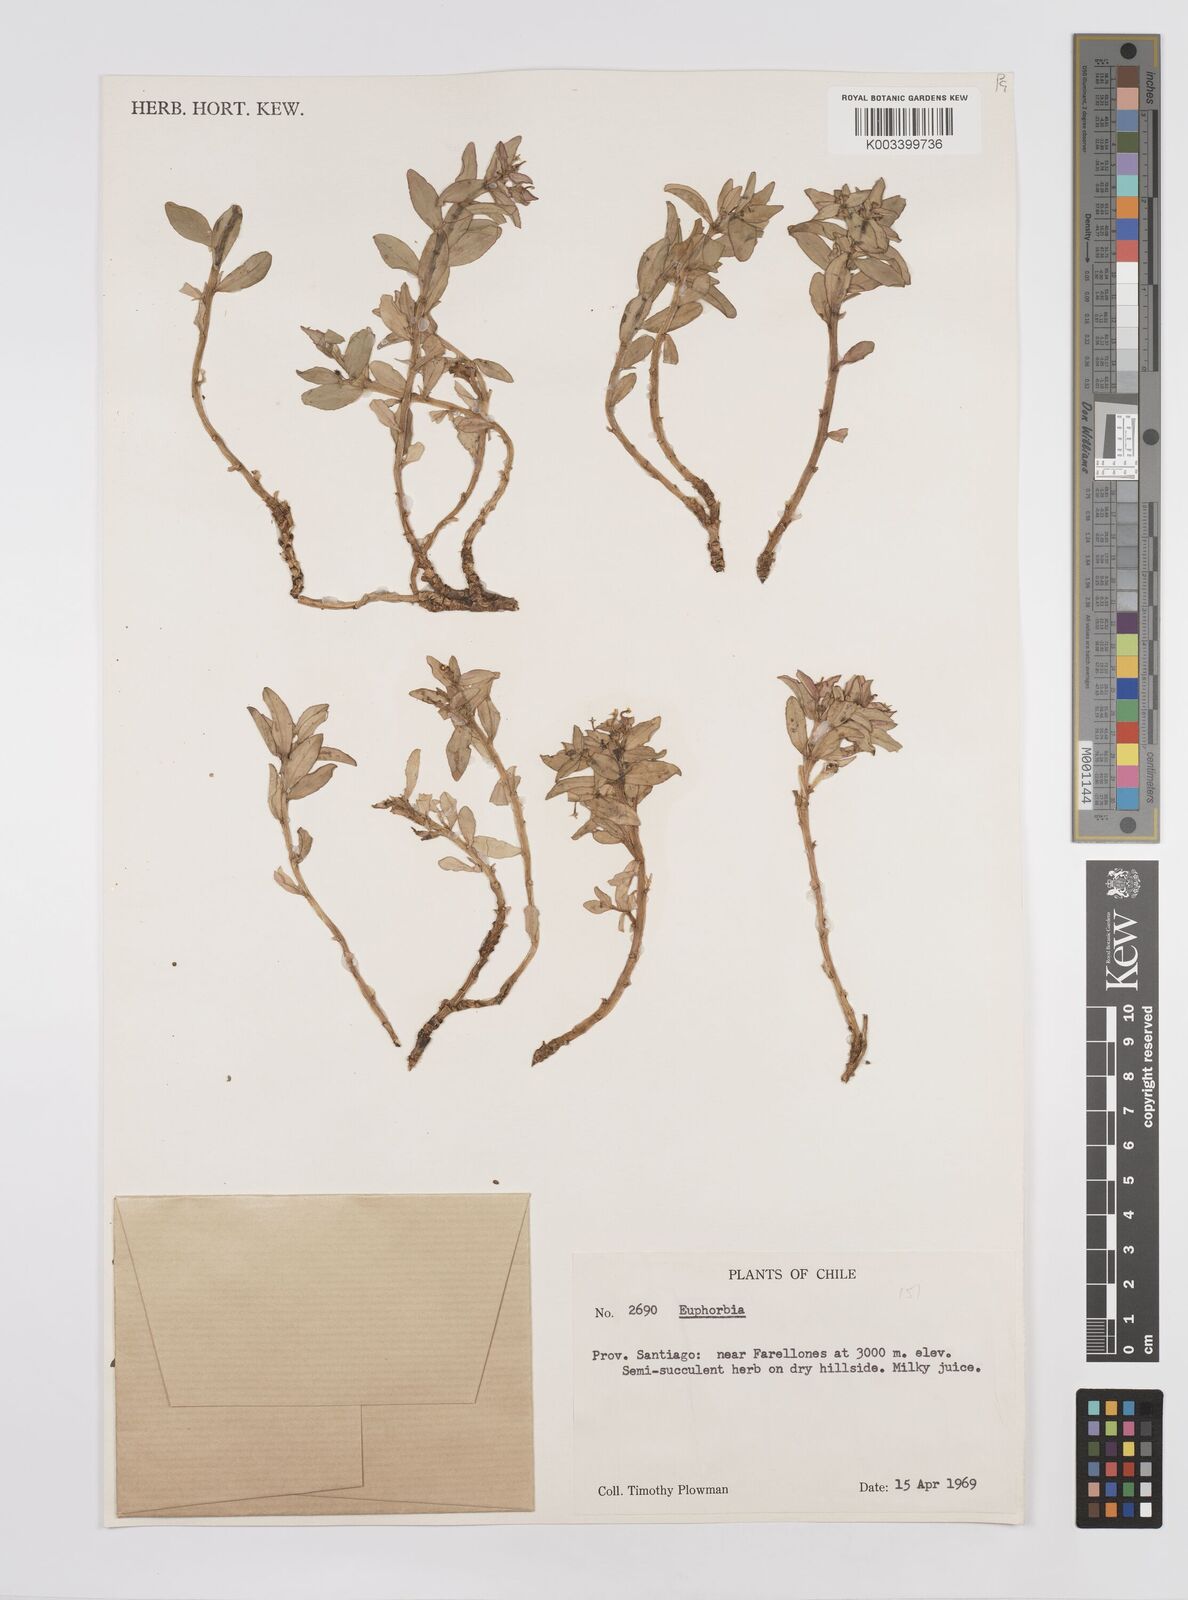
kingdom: Plantae
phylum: Tracheophyta
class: Magnoliopsida
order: Malpighiales
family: Euphorbiaceae
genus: Euphorbia
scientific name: Euphorbia
